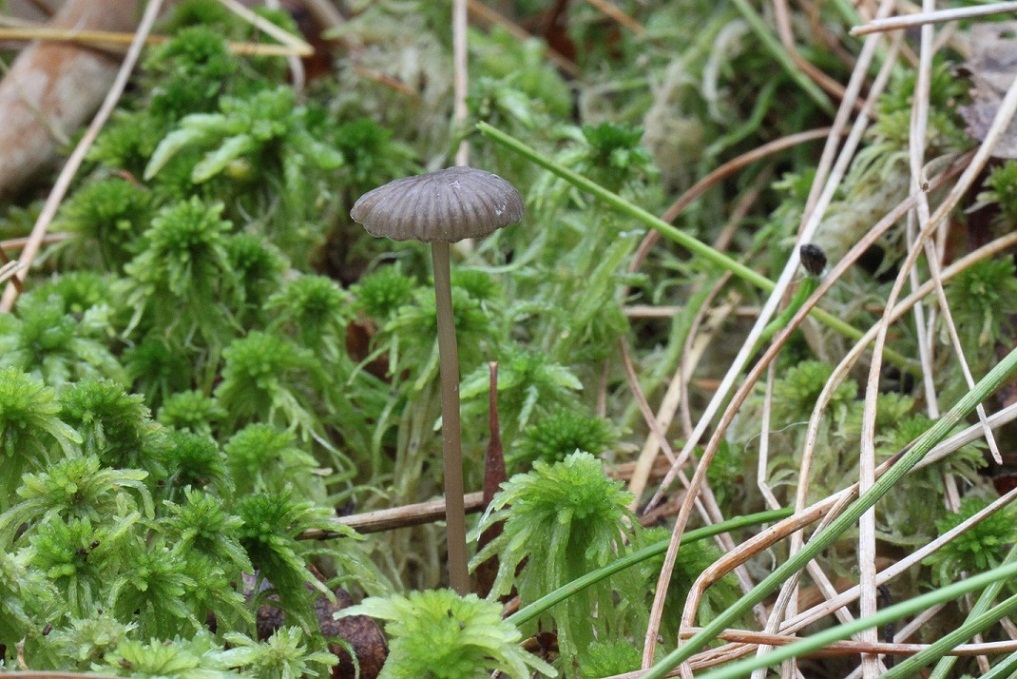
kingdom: Fungi
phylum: Basidiomycota
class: Agaricomycetes
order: Agaricales
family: Mycenaceae
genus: Mycena
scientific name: Mycena galopus
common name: hvidmælket huesvamp
